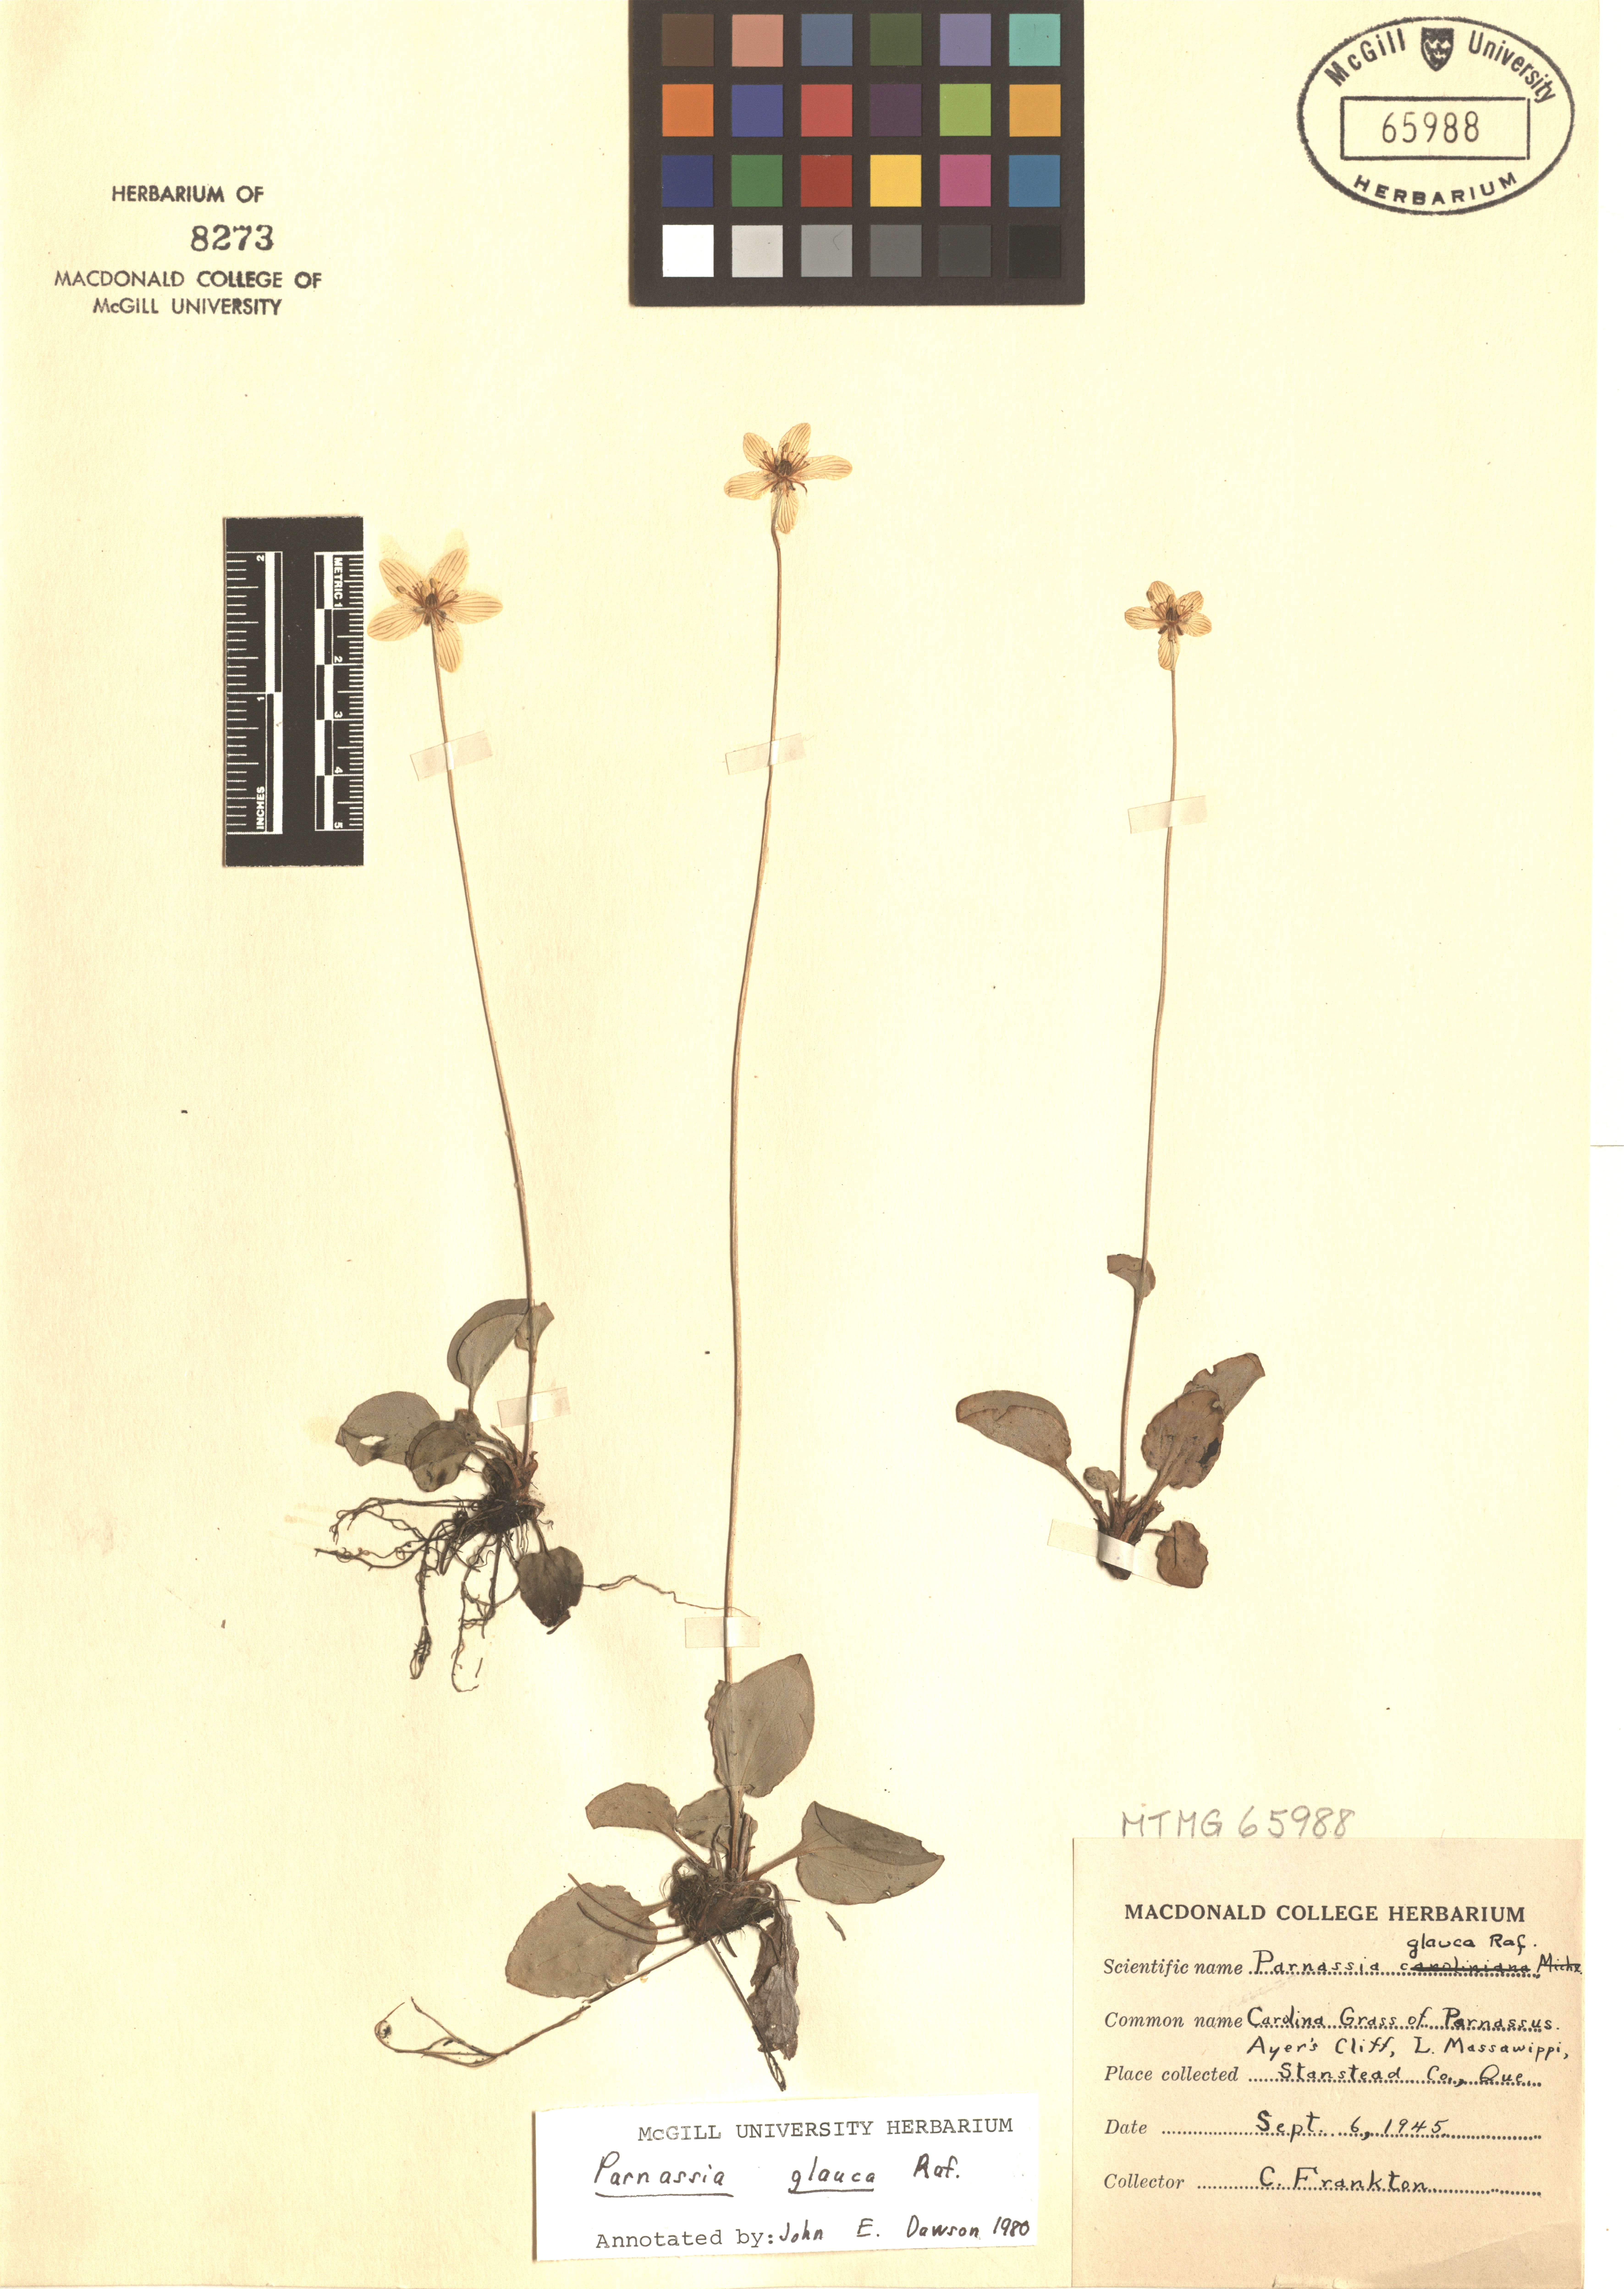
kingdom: Plantae
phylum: Tracheophyta
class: Magnoliopsida
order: Celastrales
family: Parnassiaceae
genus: Parnassia
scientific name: Parnassia glauca
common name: American grass-of-parnassus
